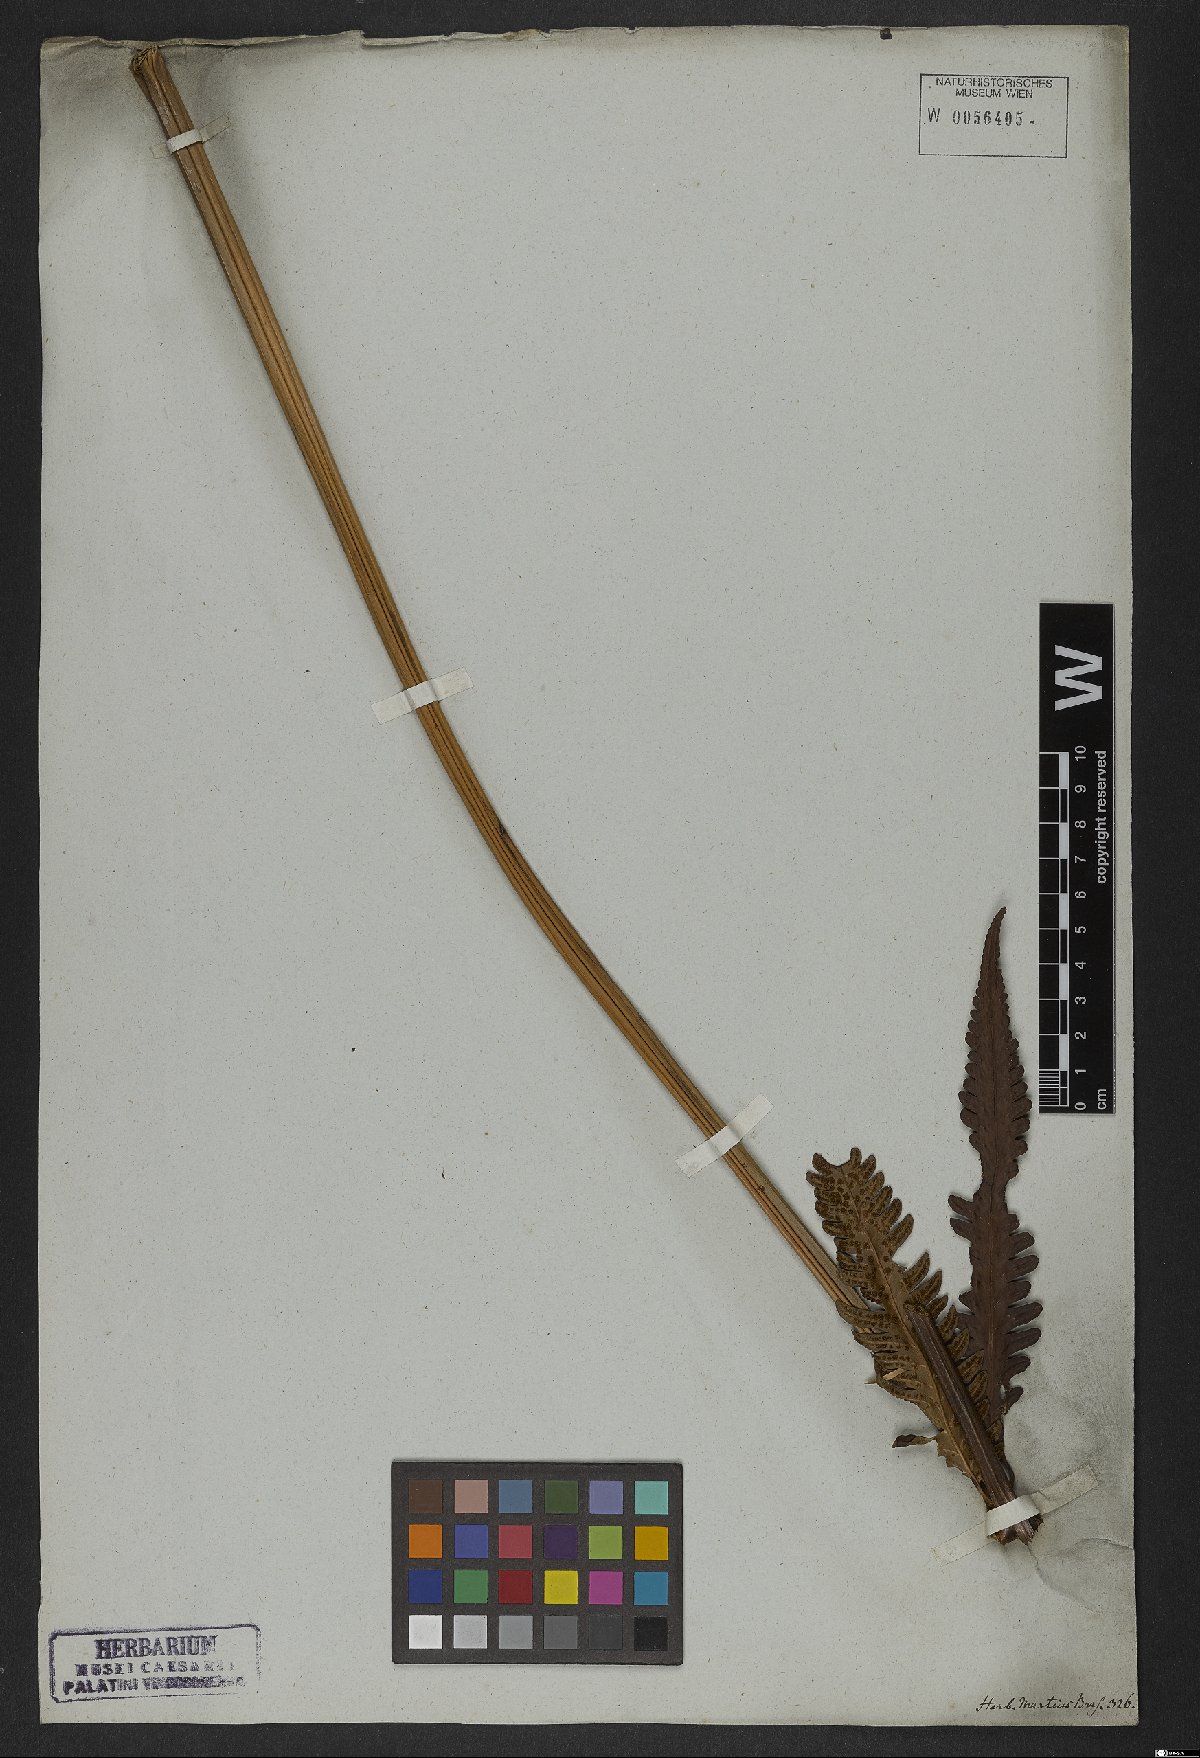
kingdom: Plantae
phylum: Tracheophyta
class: Polypodiopsida
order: Polypodiales
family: Dryopteridaceae
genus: Polystichum
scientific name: Polystichum
